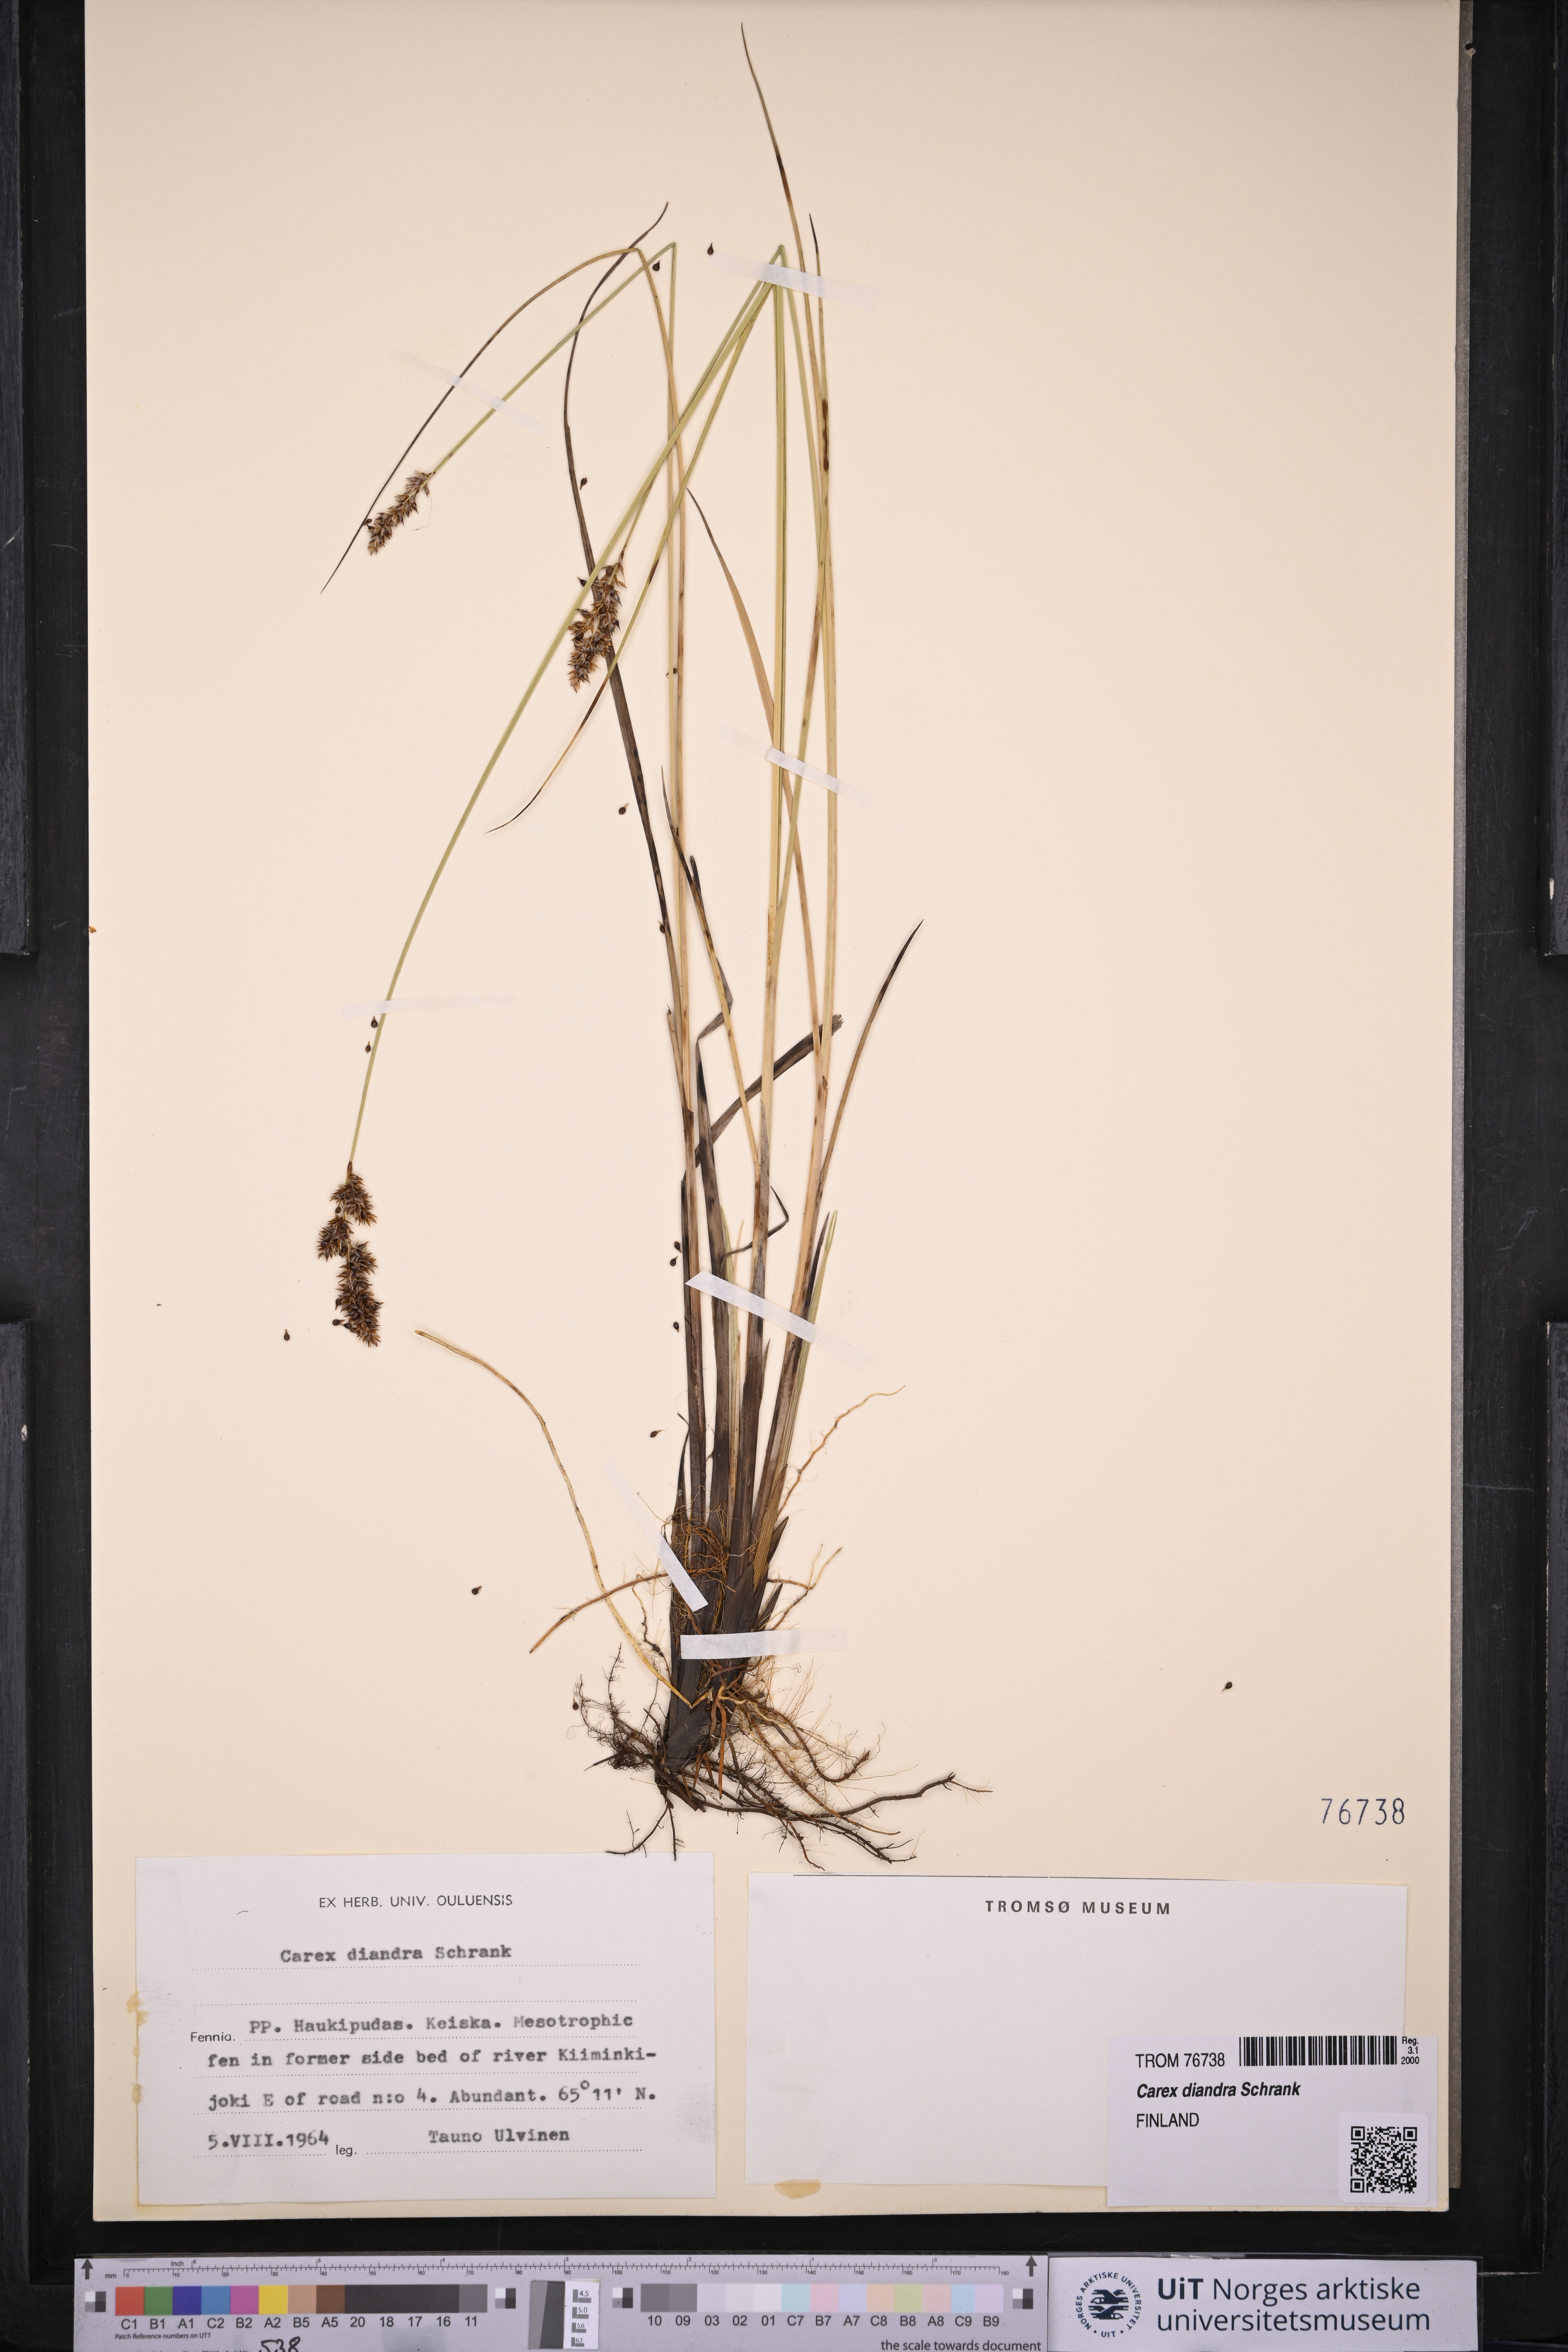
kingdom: Plantae
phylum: Tracheophyta
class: Liliopsida
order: Poales
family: Cyperaceae
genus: Carex
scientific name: Carex diandra
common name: Lesser tussock-sedge
